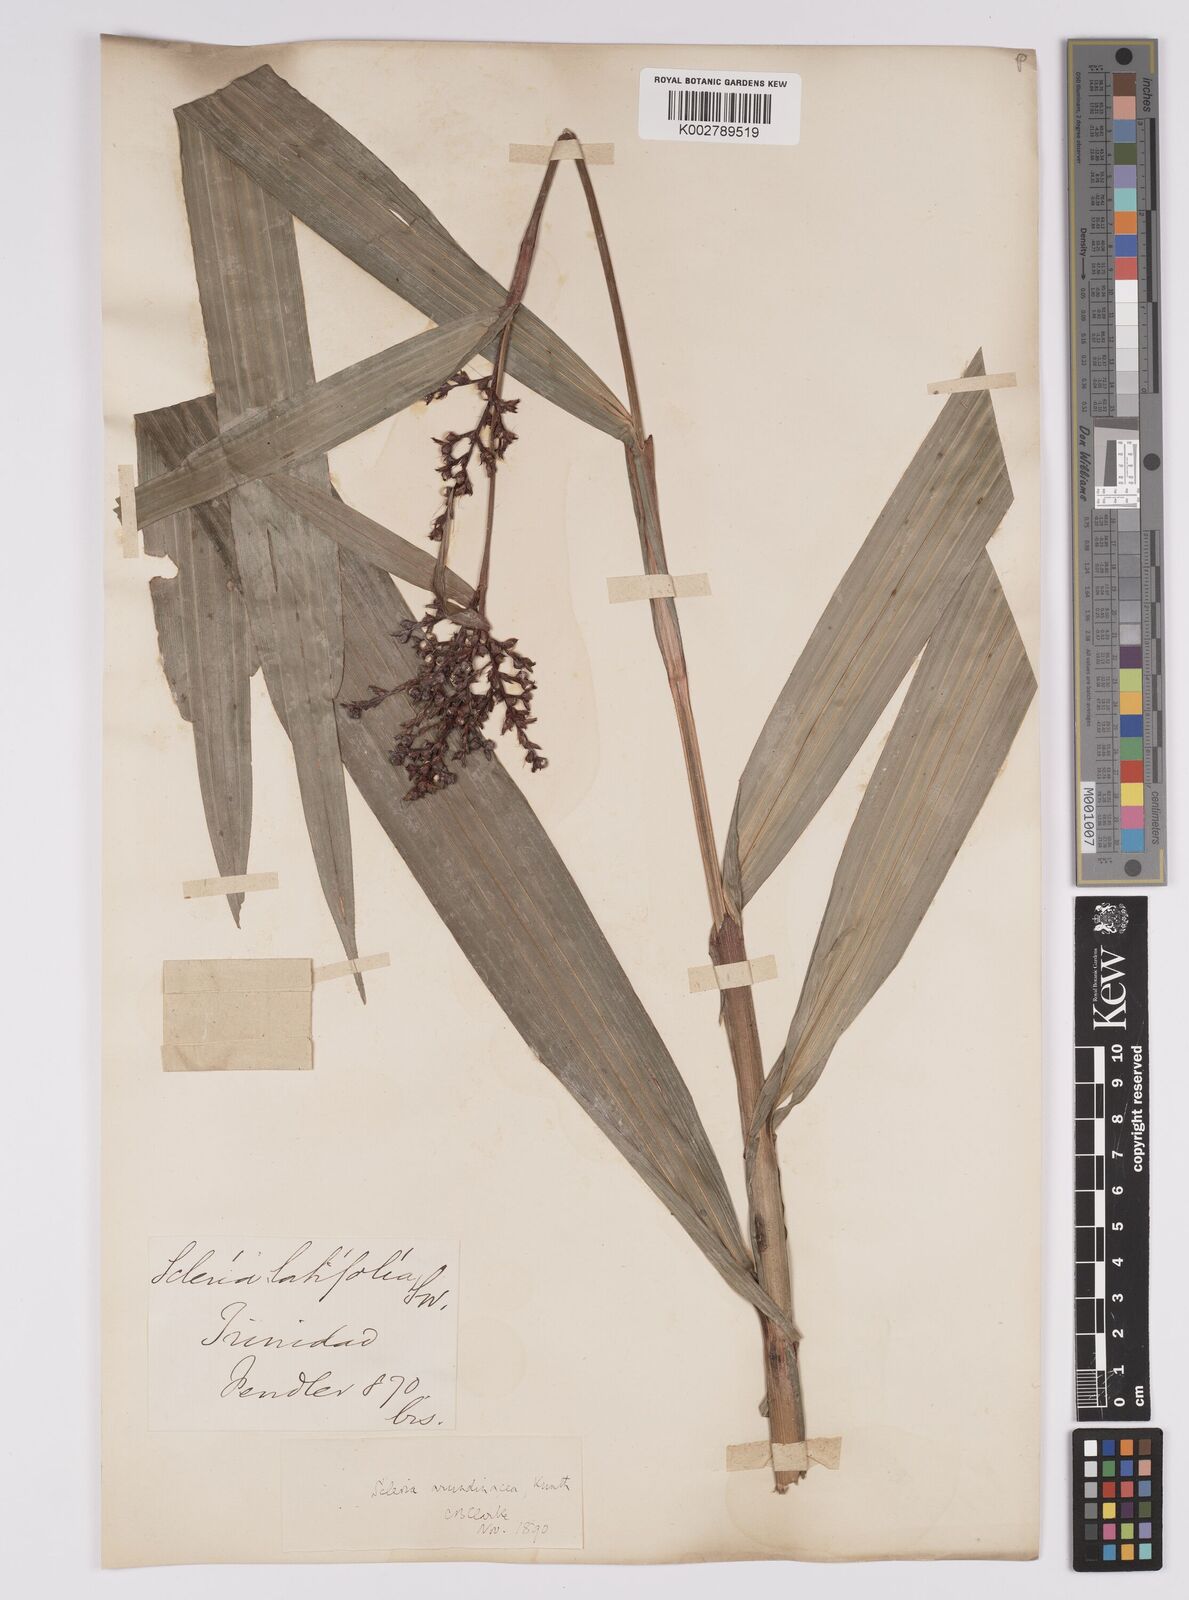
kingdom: Plantae
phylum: Tracheophyta
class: Liliopsida
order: Poales
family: Cyperaceae
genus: Scleria
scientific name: Scleria latifolia
